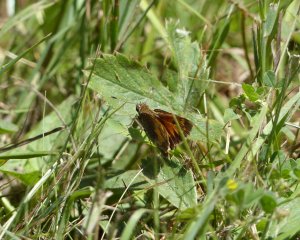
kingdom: Animalia
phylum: Arthropoda
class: Insecta
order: Lepidoptera
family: Hesperiidae
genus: Atrytone
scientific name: Atrytone delaware
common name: Delaware Skipper
